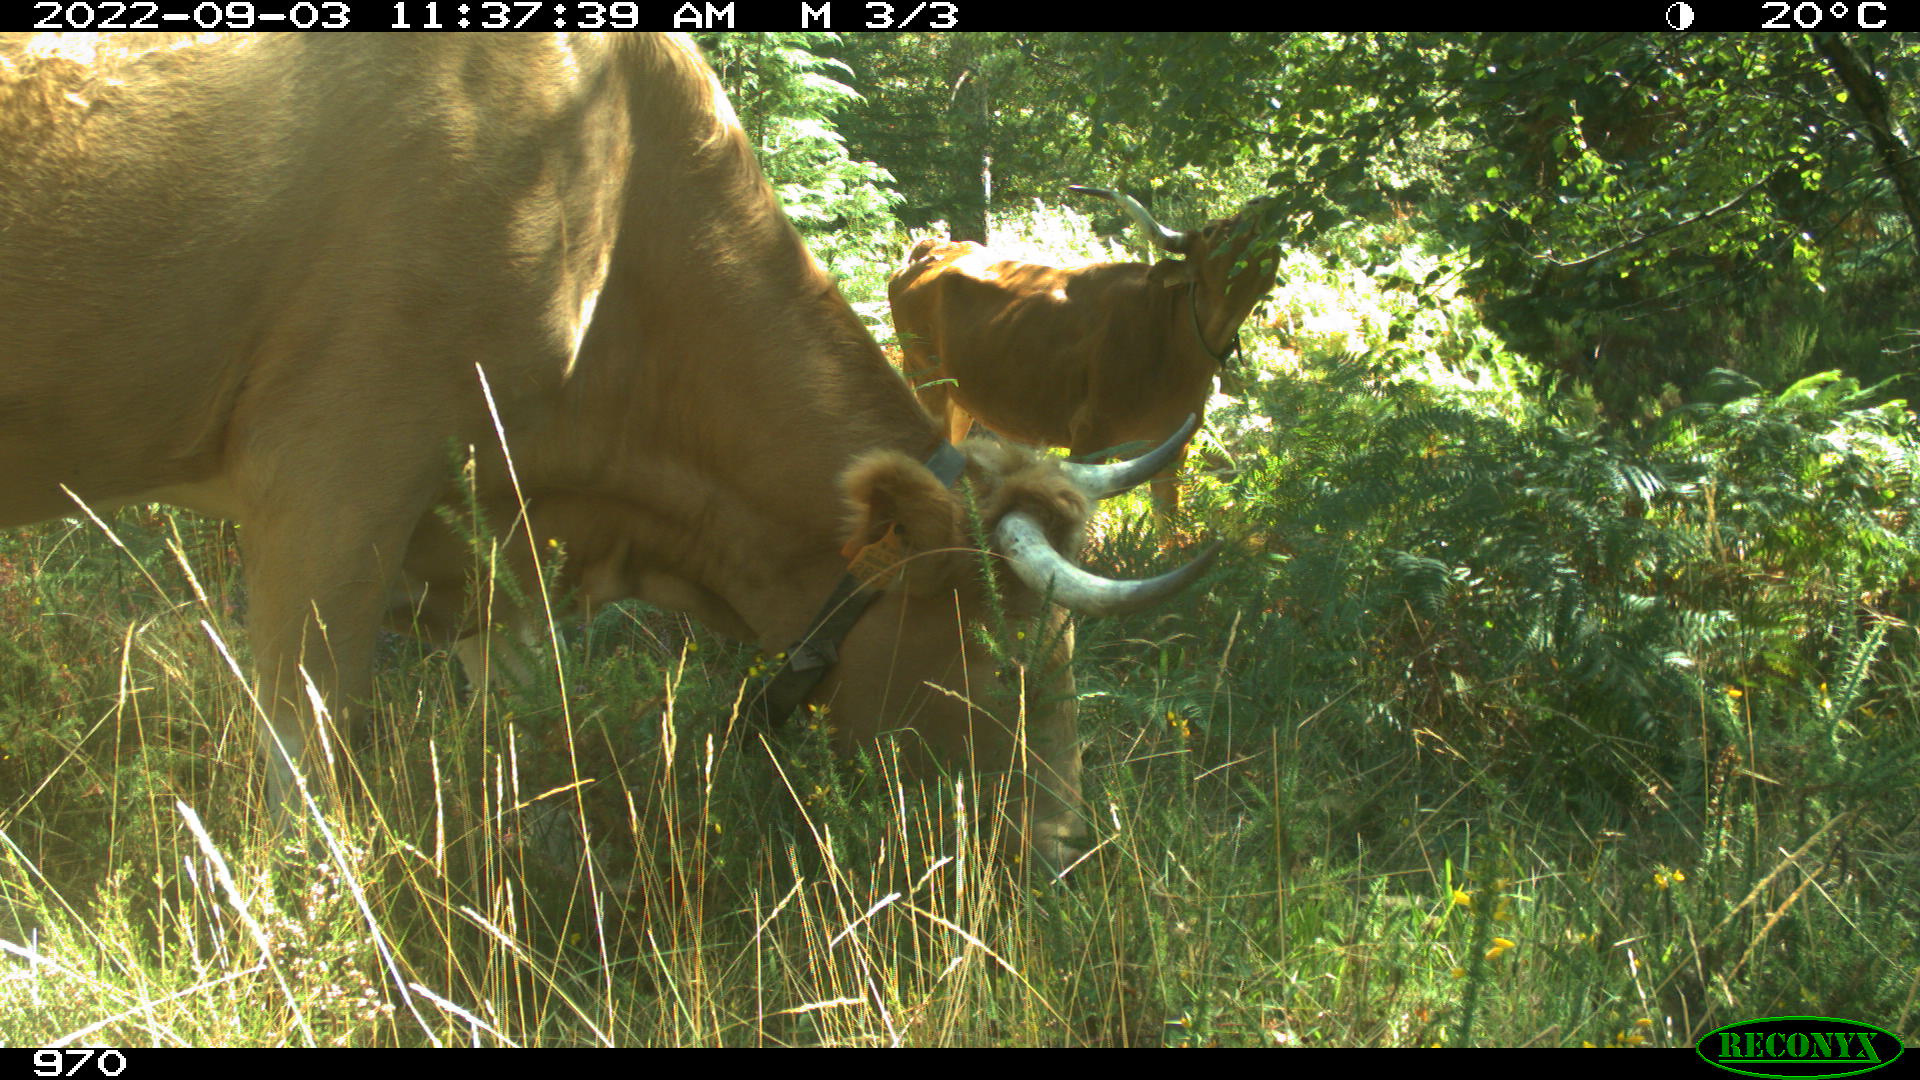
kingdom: Animalia
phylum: Chordata
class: Mammalia
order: Artiodactyla
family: Bovidae
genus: Bos
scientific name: Bos taurus
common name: Domesticated cattle
